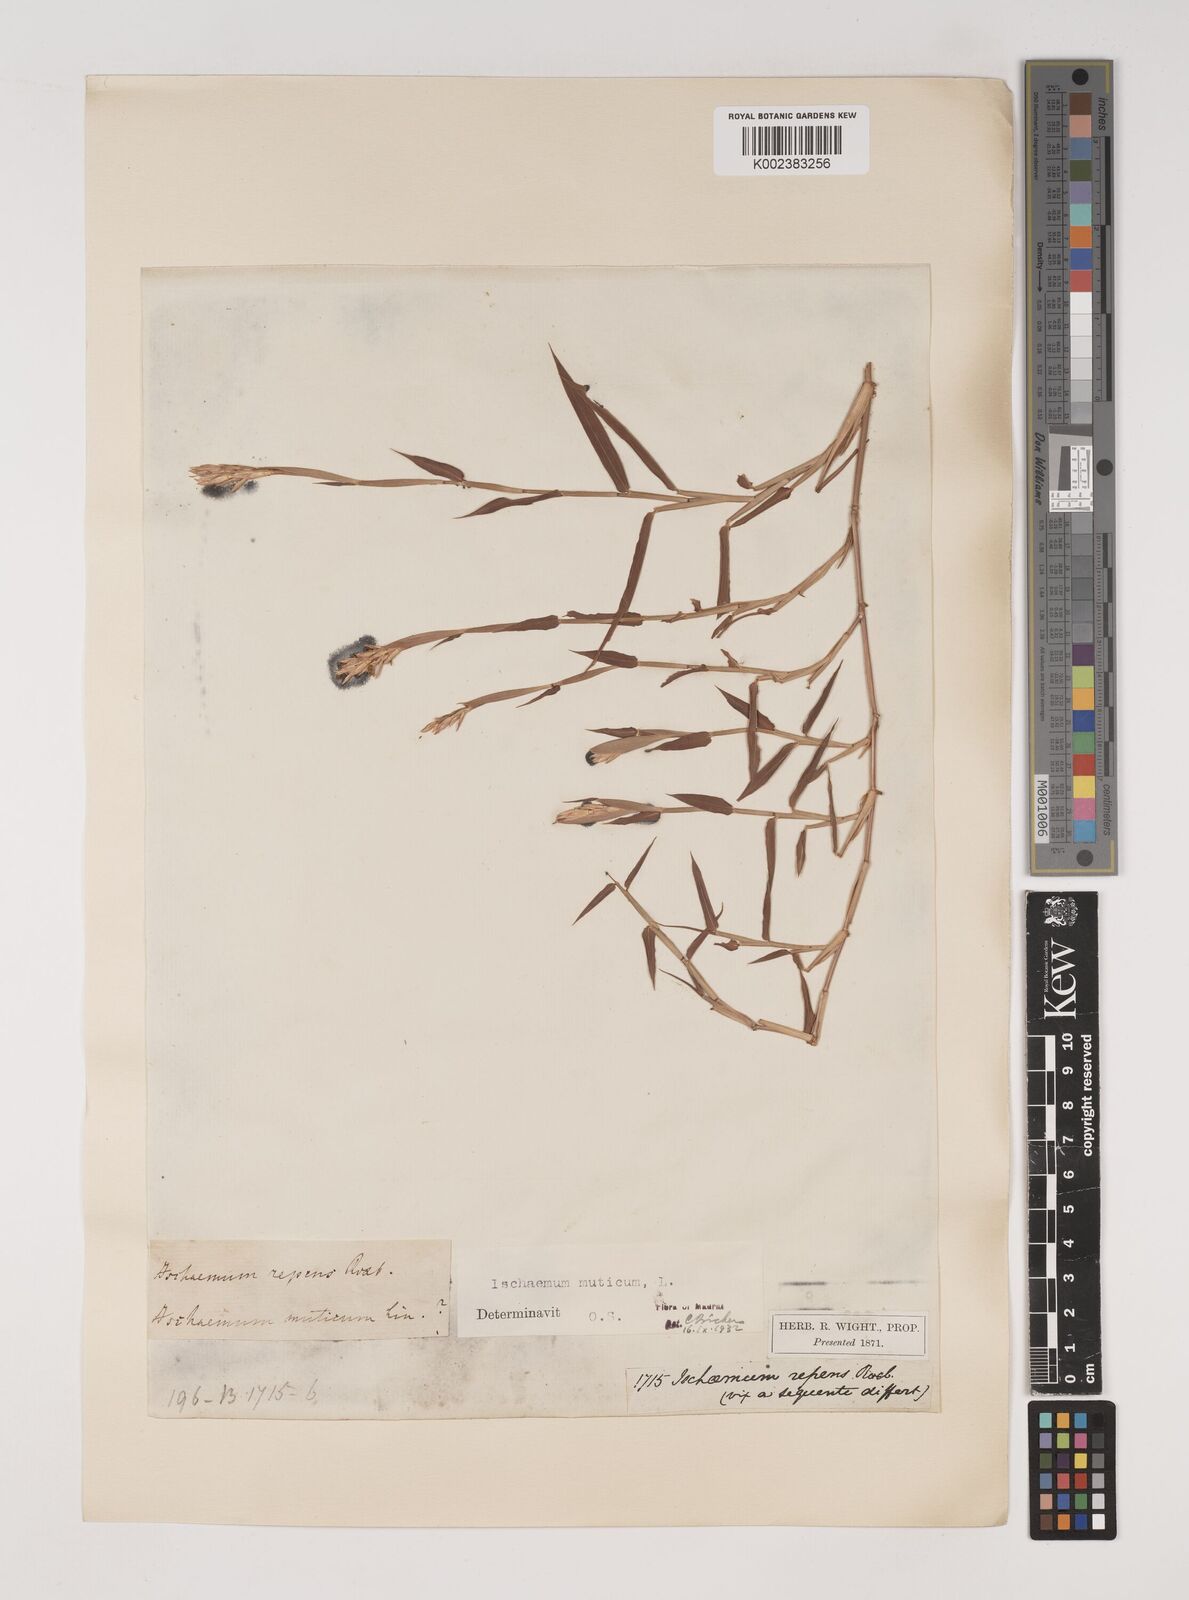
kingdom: Plantae
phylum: Tracheophyta
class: Liliopsida
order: Poales
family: Poaceae
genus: Ischaemum
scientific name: Ischaemum muticum
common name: Drought grass
